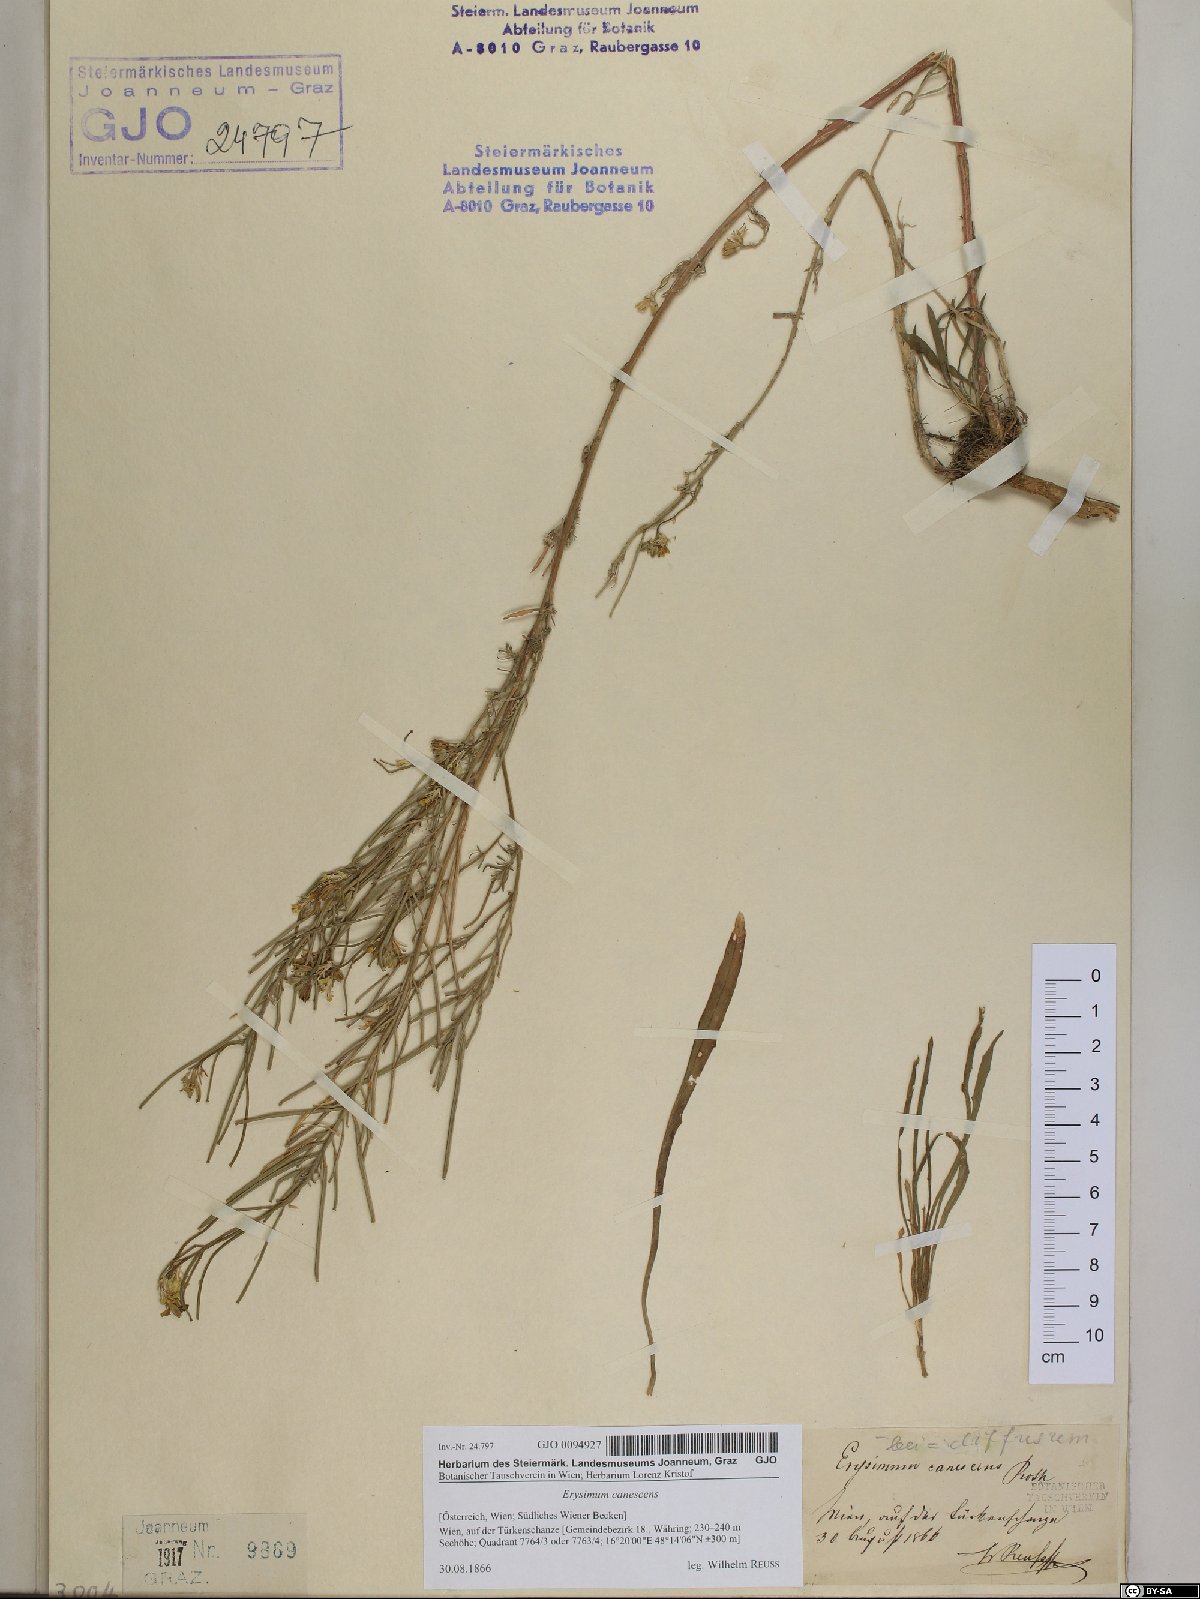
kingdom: Plantae
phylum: Tracheophyta
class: Magnoliopsida
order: Brassicales
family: Brassicaceae
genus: Erysimum
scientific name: Erysimum canescens
